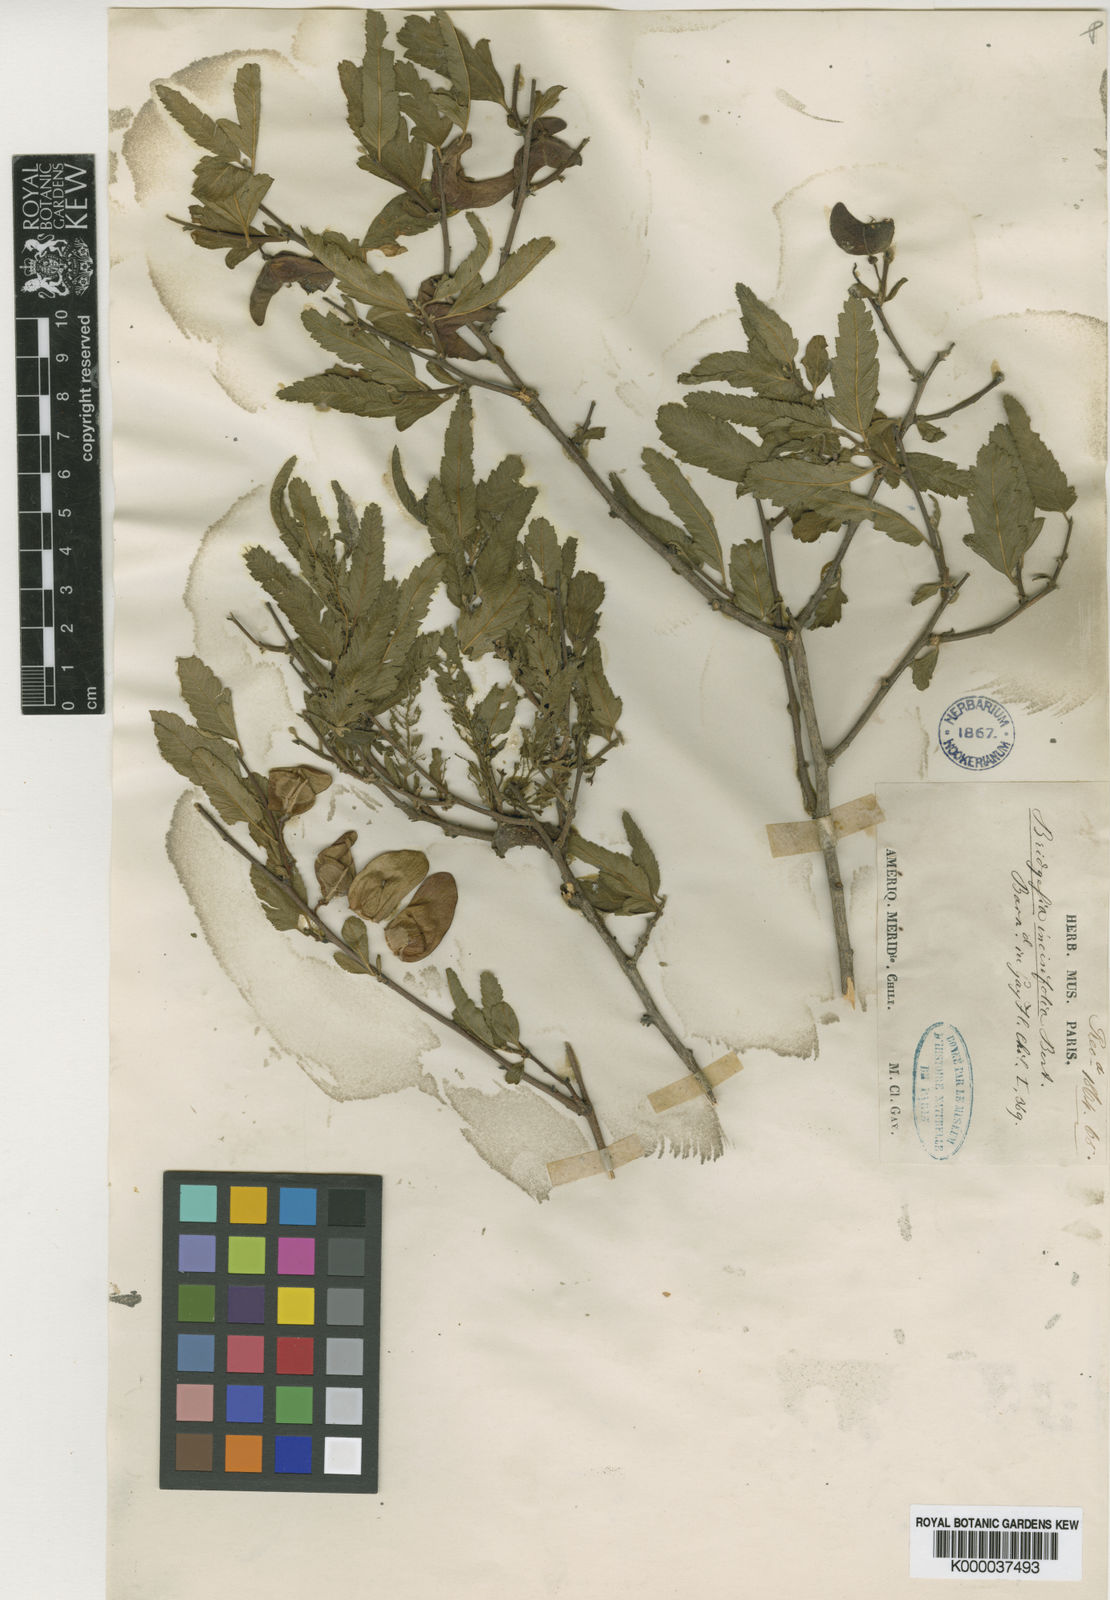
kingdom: Plantae
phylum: Tracheophyta
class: Magnoliopsida
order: Sapindales
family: Sapindaceae
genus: Bridgesia
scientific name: Bridgesia incisifolia
